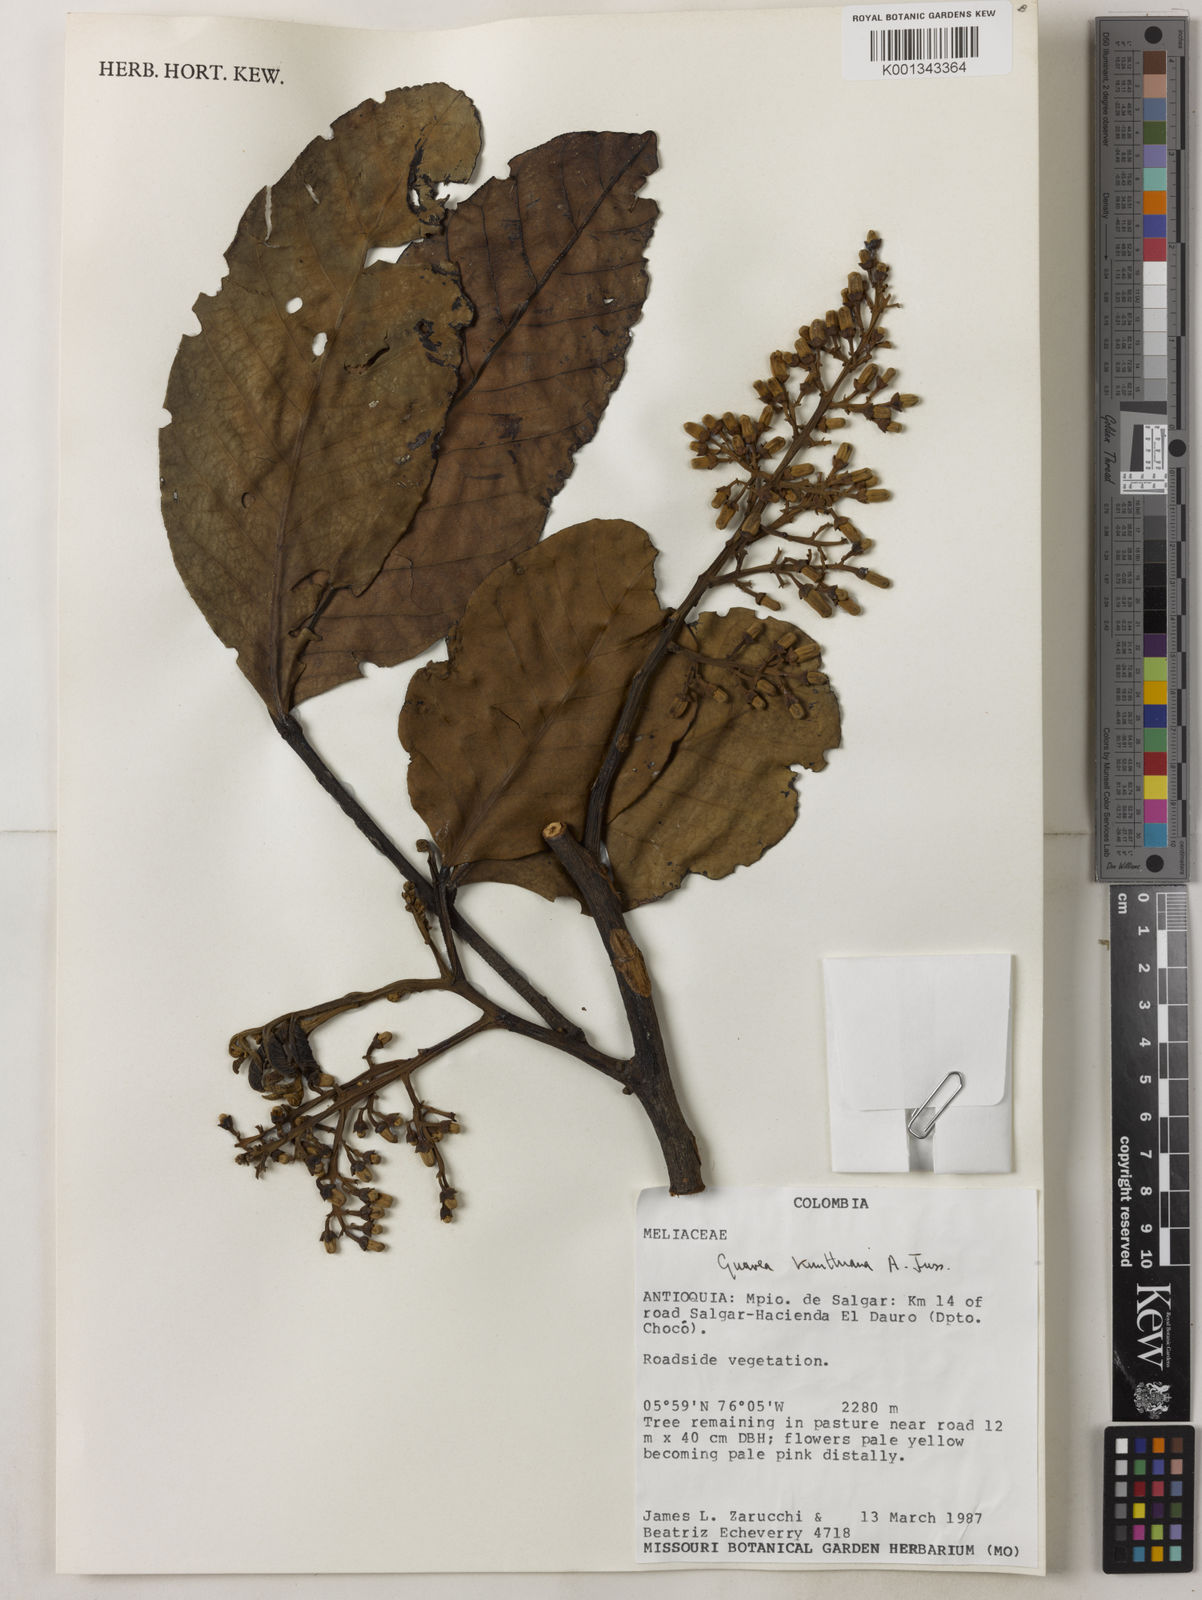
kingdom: Plantae
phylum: Tracheophyta
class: Magnoliopsida
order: Sapindales
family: Meliaceae
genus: Guarea
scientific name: Guarea kunthiana
